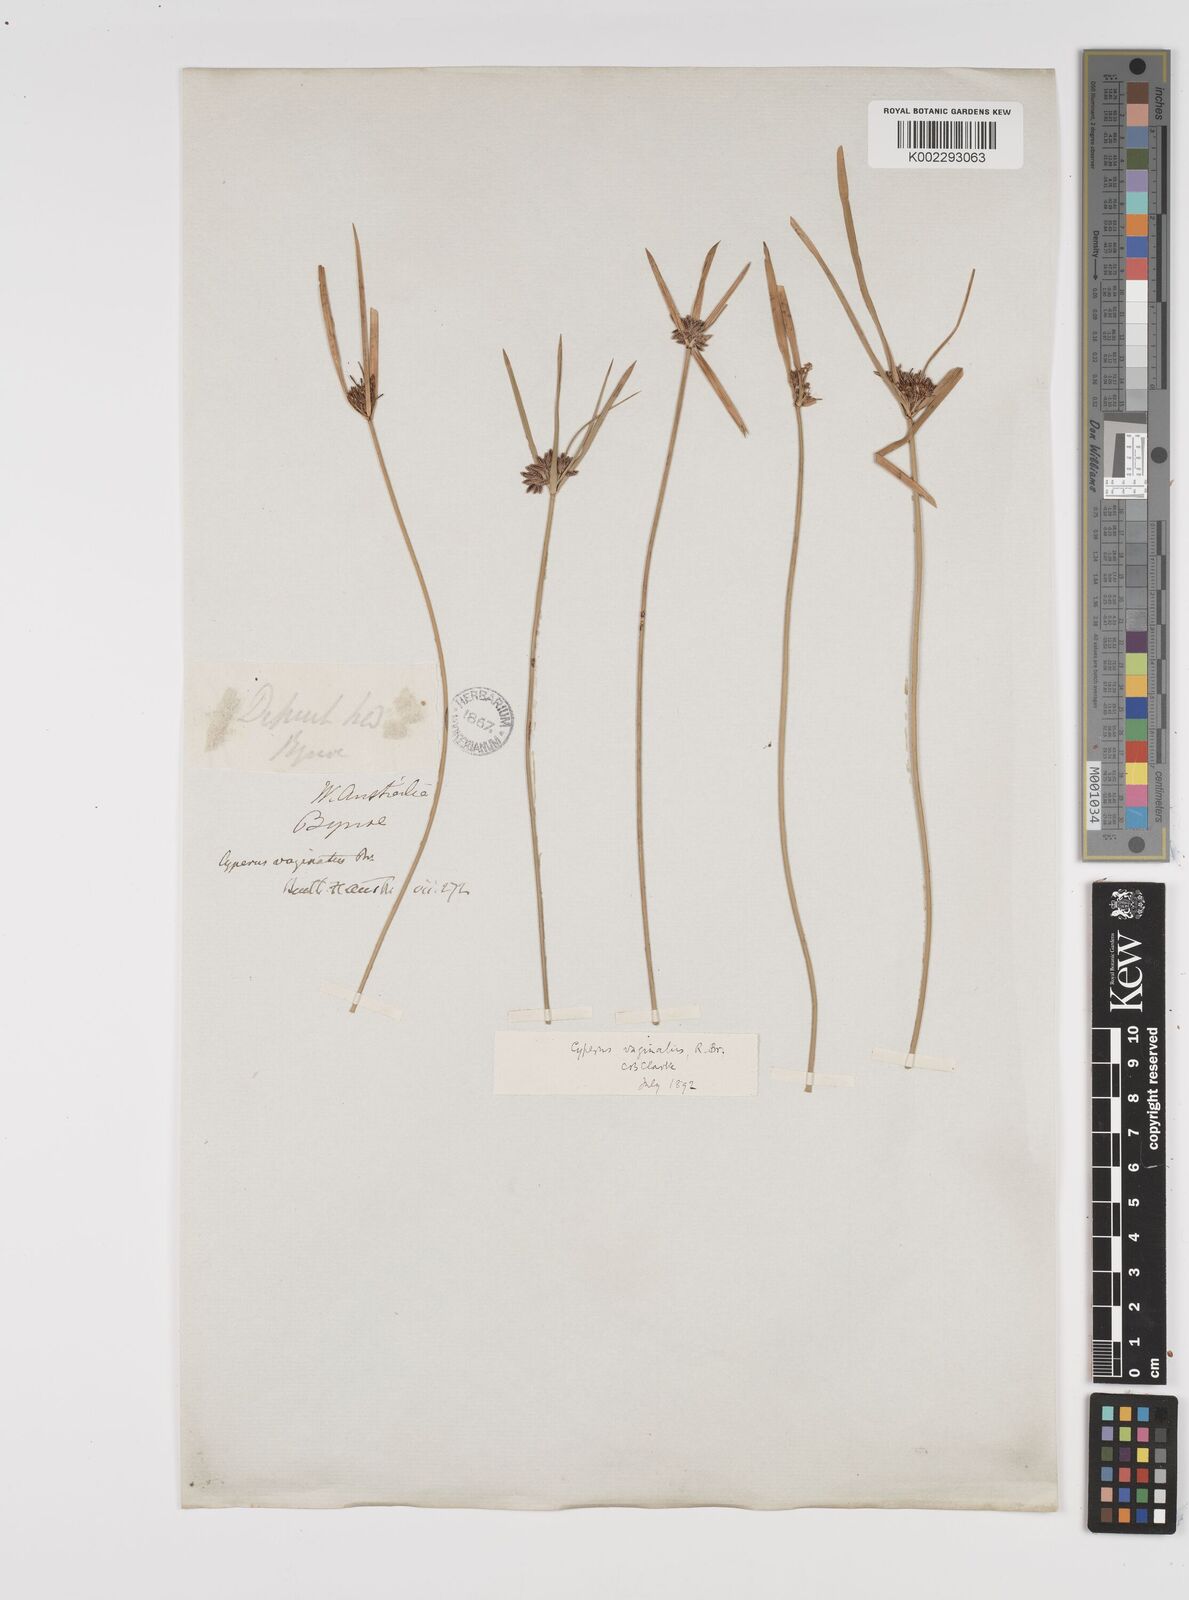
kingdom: Plantae
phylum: Tracheophyta
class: Liliopsida
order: Poales
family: Cyperaceae
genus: Cyperus
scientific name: Cyperus vaginatus
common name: Stiff-leaved flat-sedge
